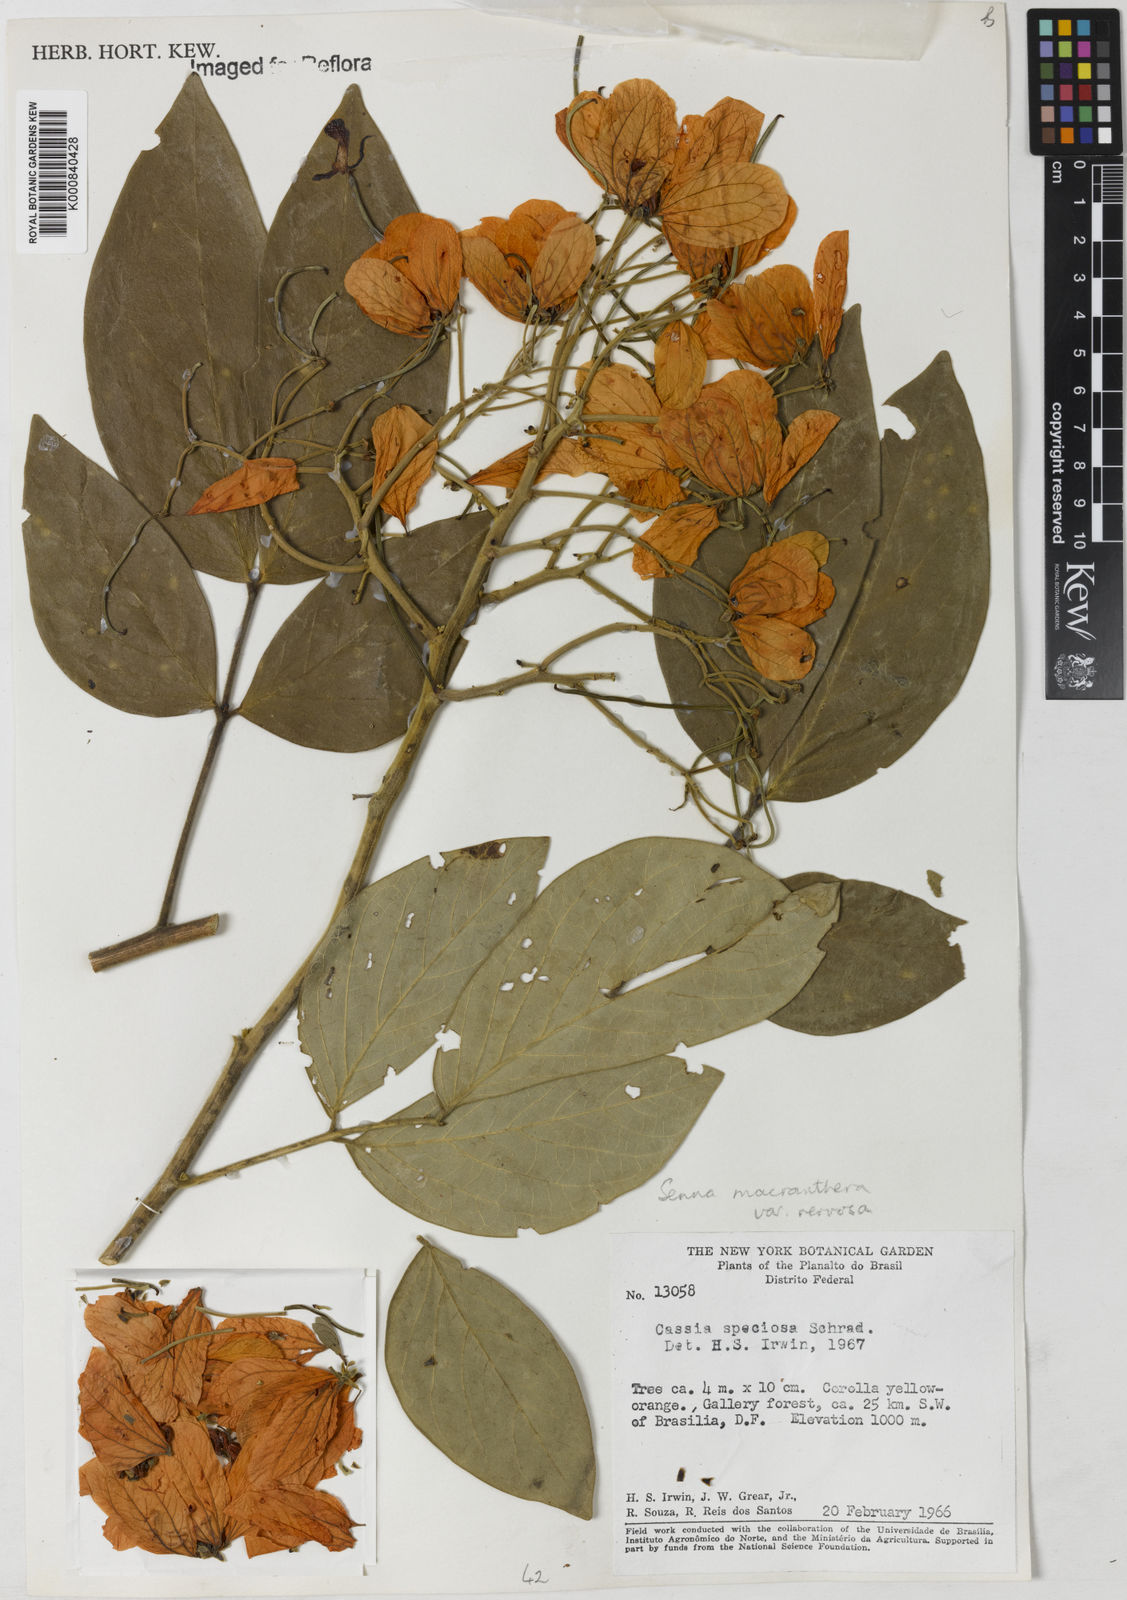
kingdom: Plantae
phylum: Tracheophyta
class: Magnoliopsida
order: Fabales
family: Fabaceae
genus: Senna
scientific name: Senna macranthera
